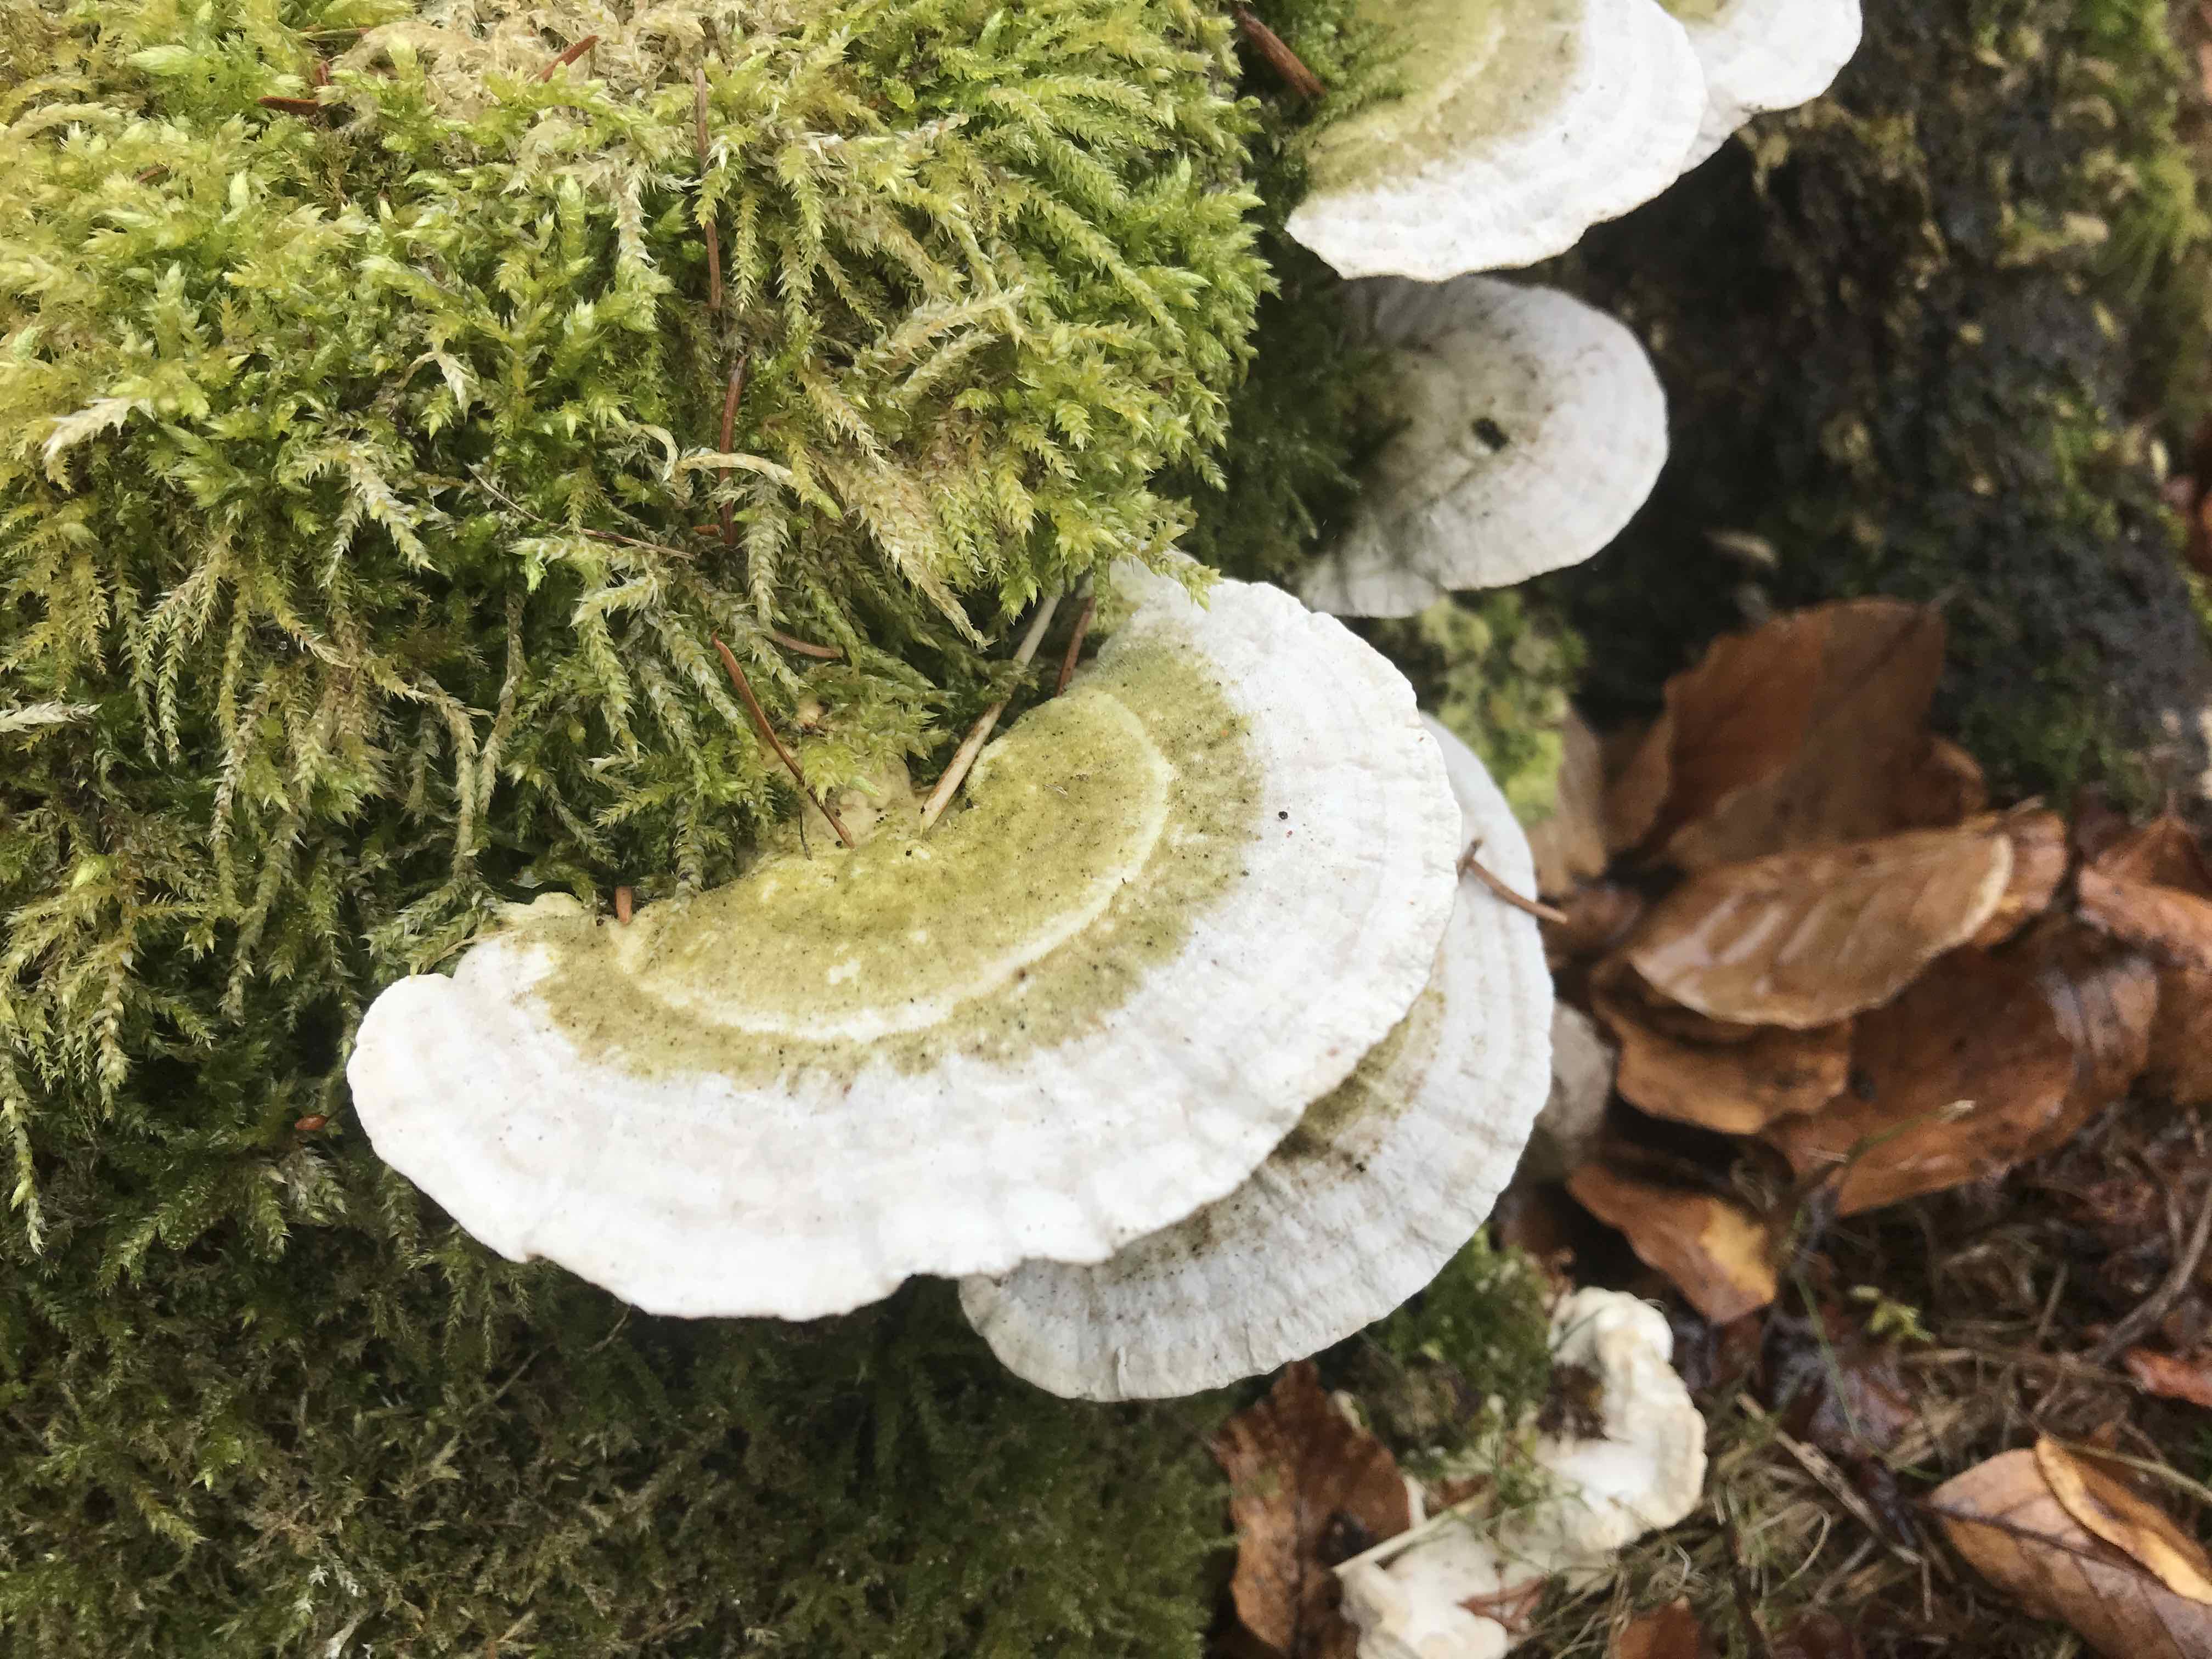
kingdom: Fungi
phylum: Basidiomycota
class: Agaricomycetes
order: Polyporales
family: Polyporaceae
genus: Trametes
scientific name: Trametes gibbosa
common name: puklet læderporesvamp
